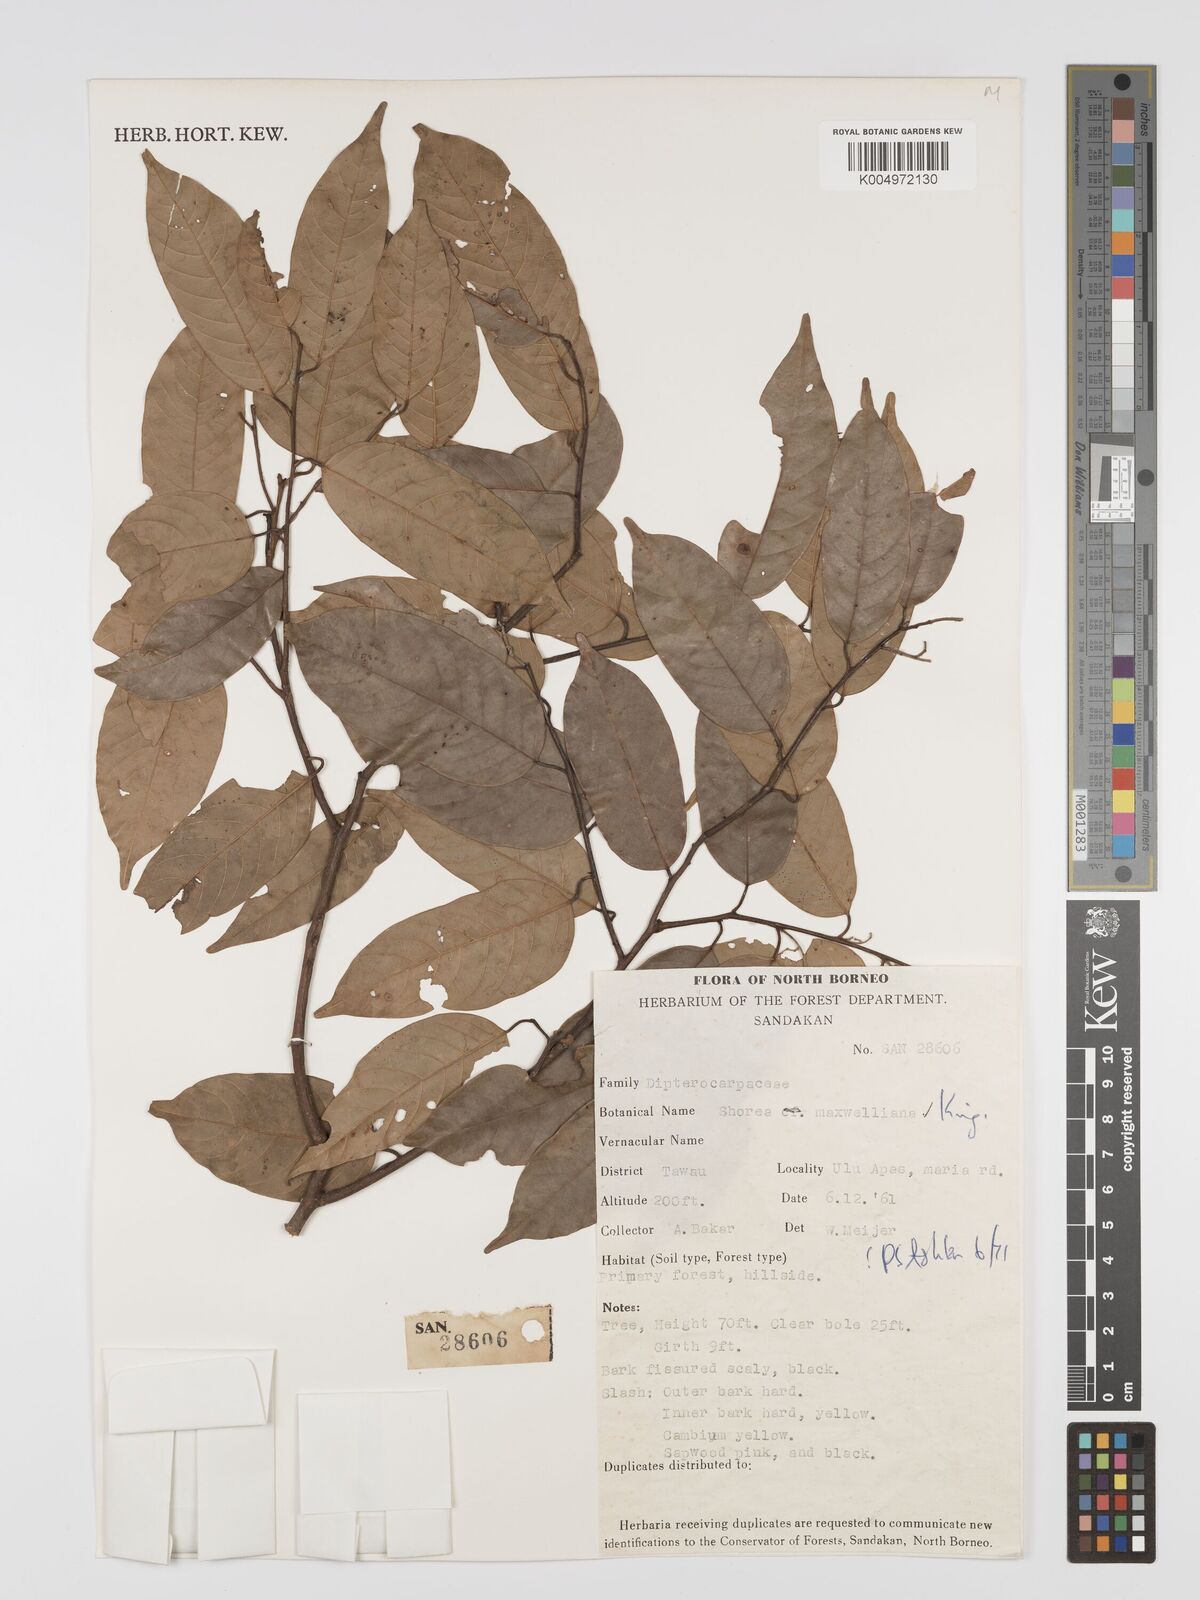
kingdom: Plantae
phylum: Tracheophyta
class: Magnoliopsida
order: Malvales
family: Dipterocarpaceae
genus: Shorea
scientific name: Shorea maxwelliana
